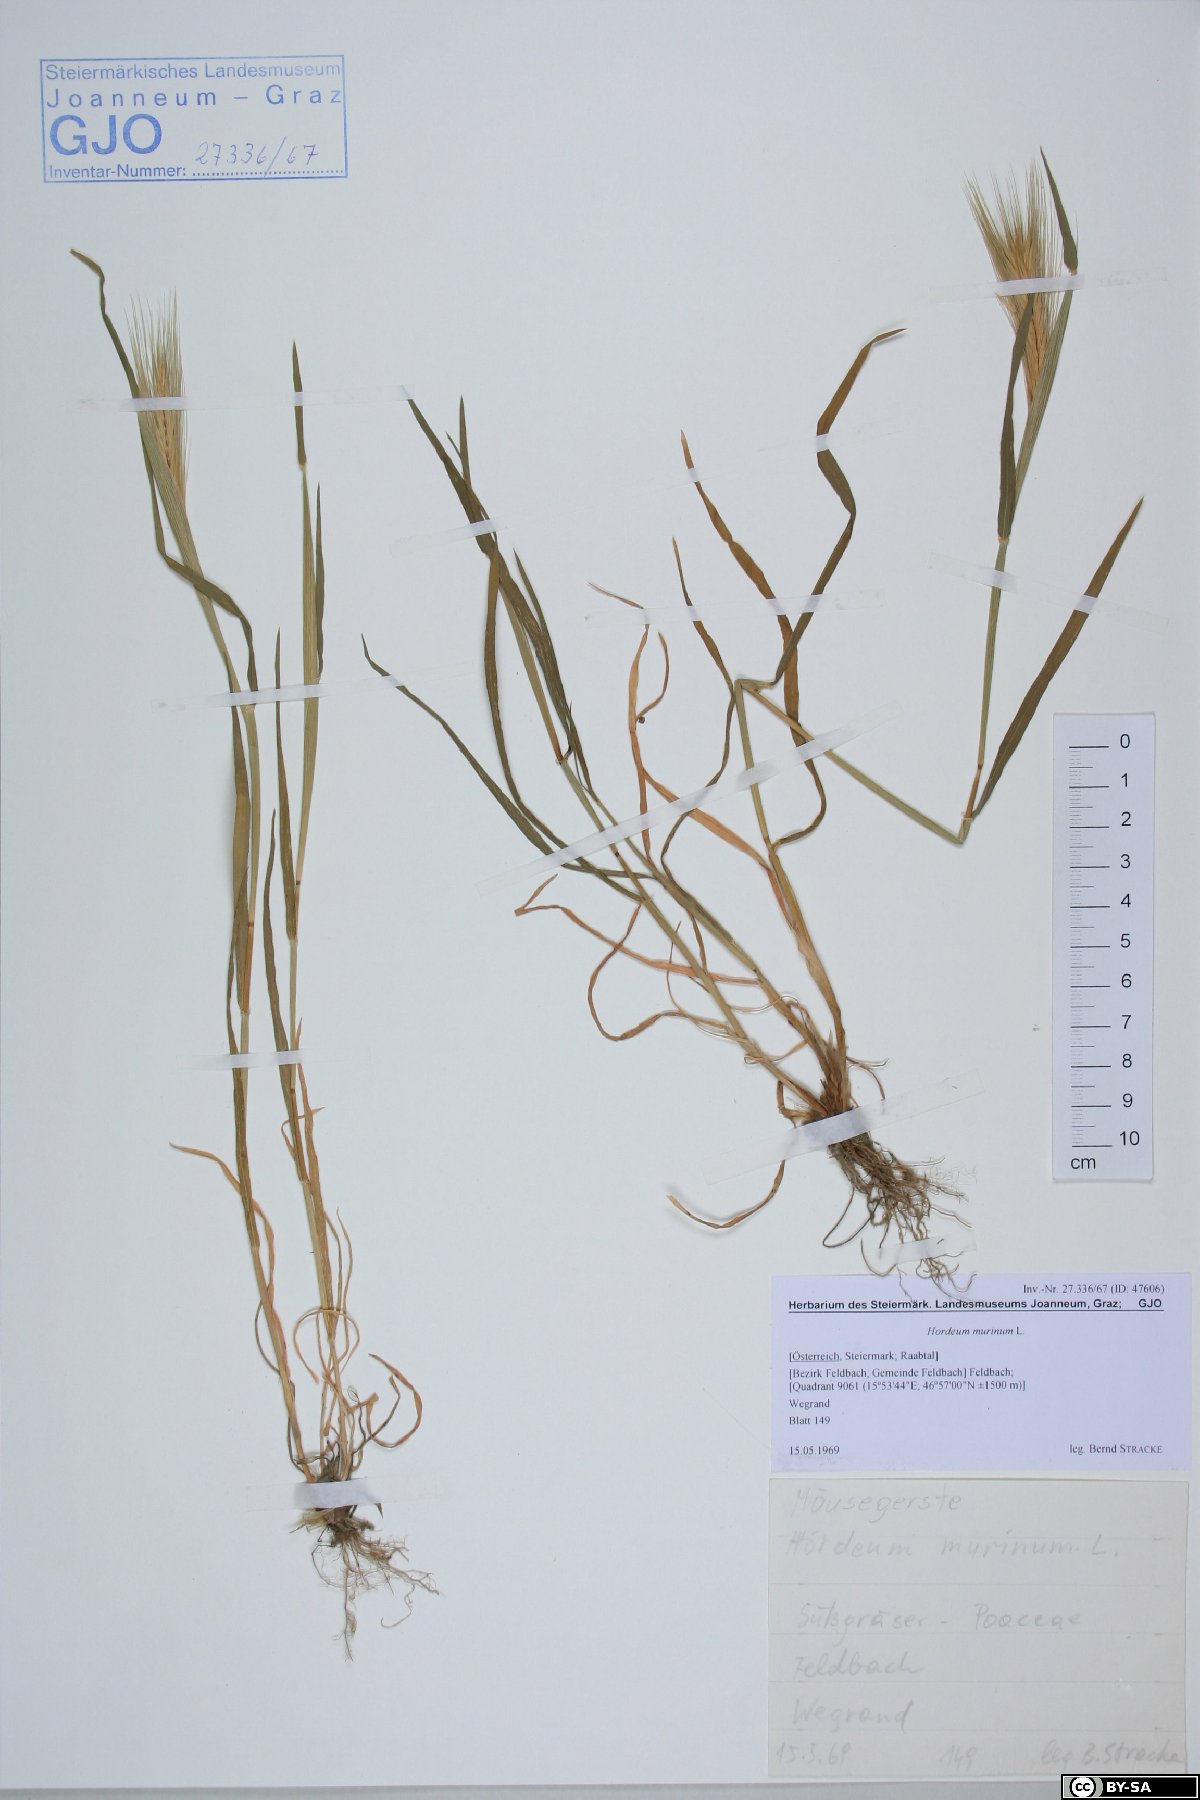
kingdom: Plantae
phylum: Tracheophyta
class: Liliopsida
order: Poales
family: Poaceae
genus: Hordeum
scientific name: Hordeum murinum
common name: Wall barley
